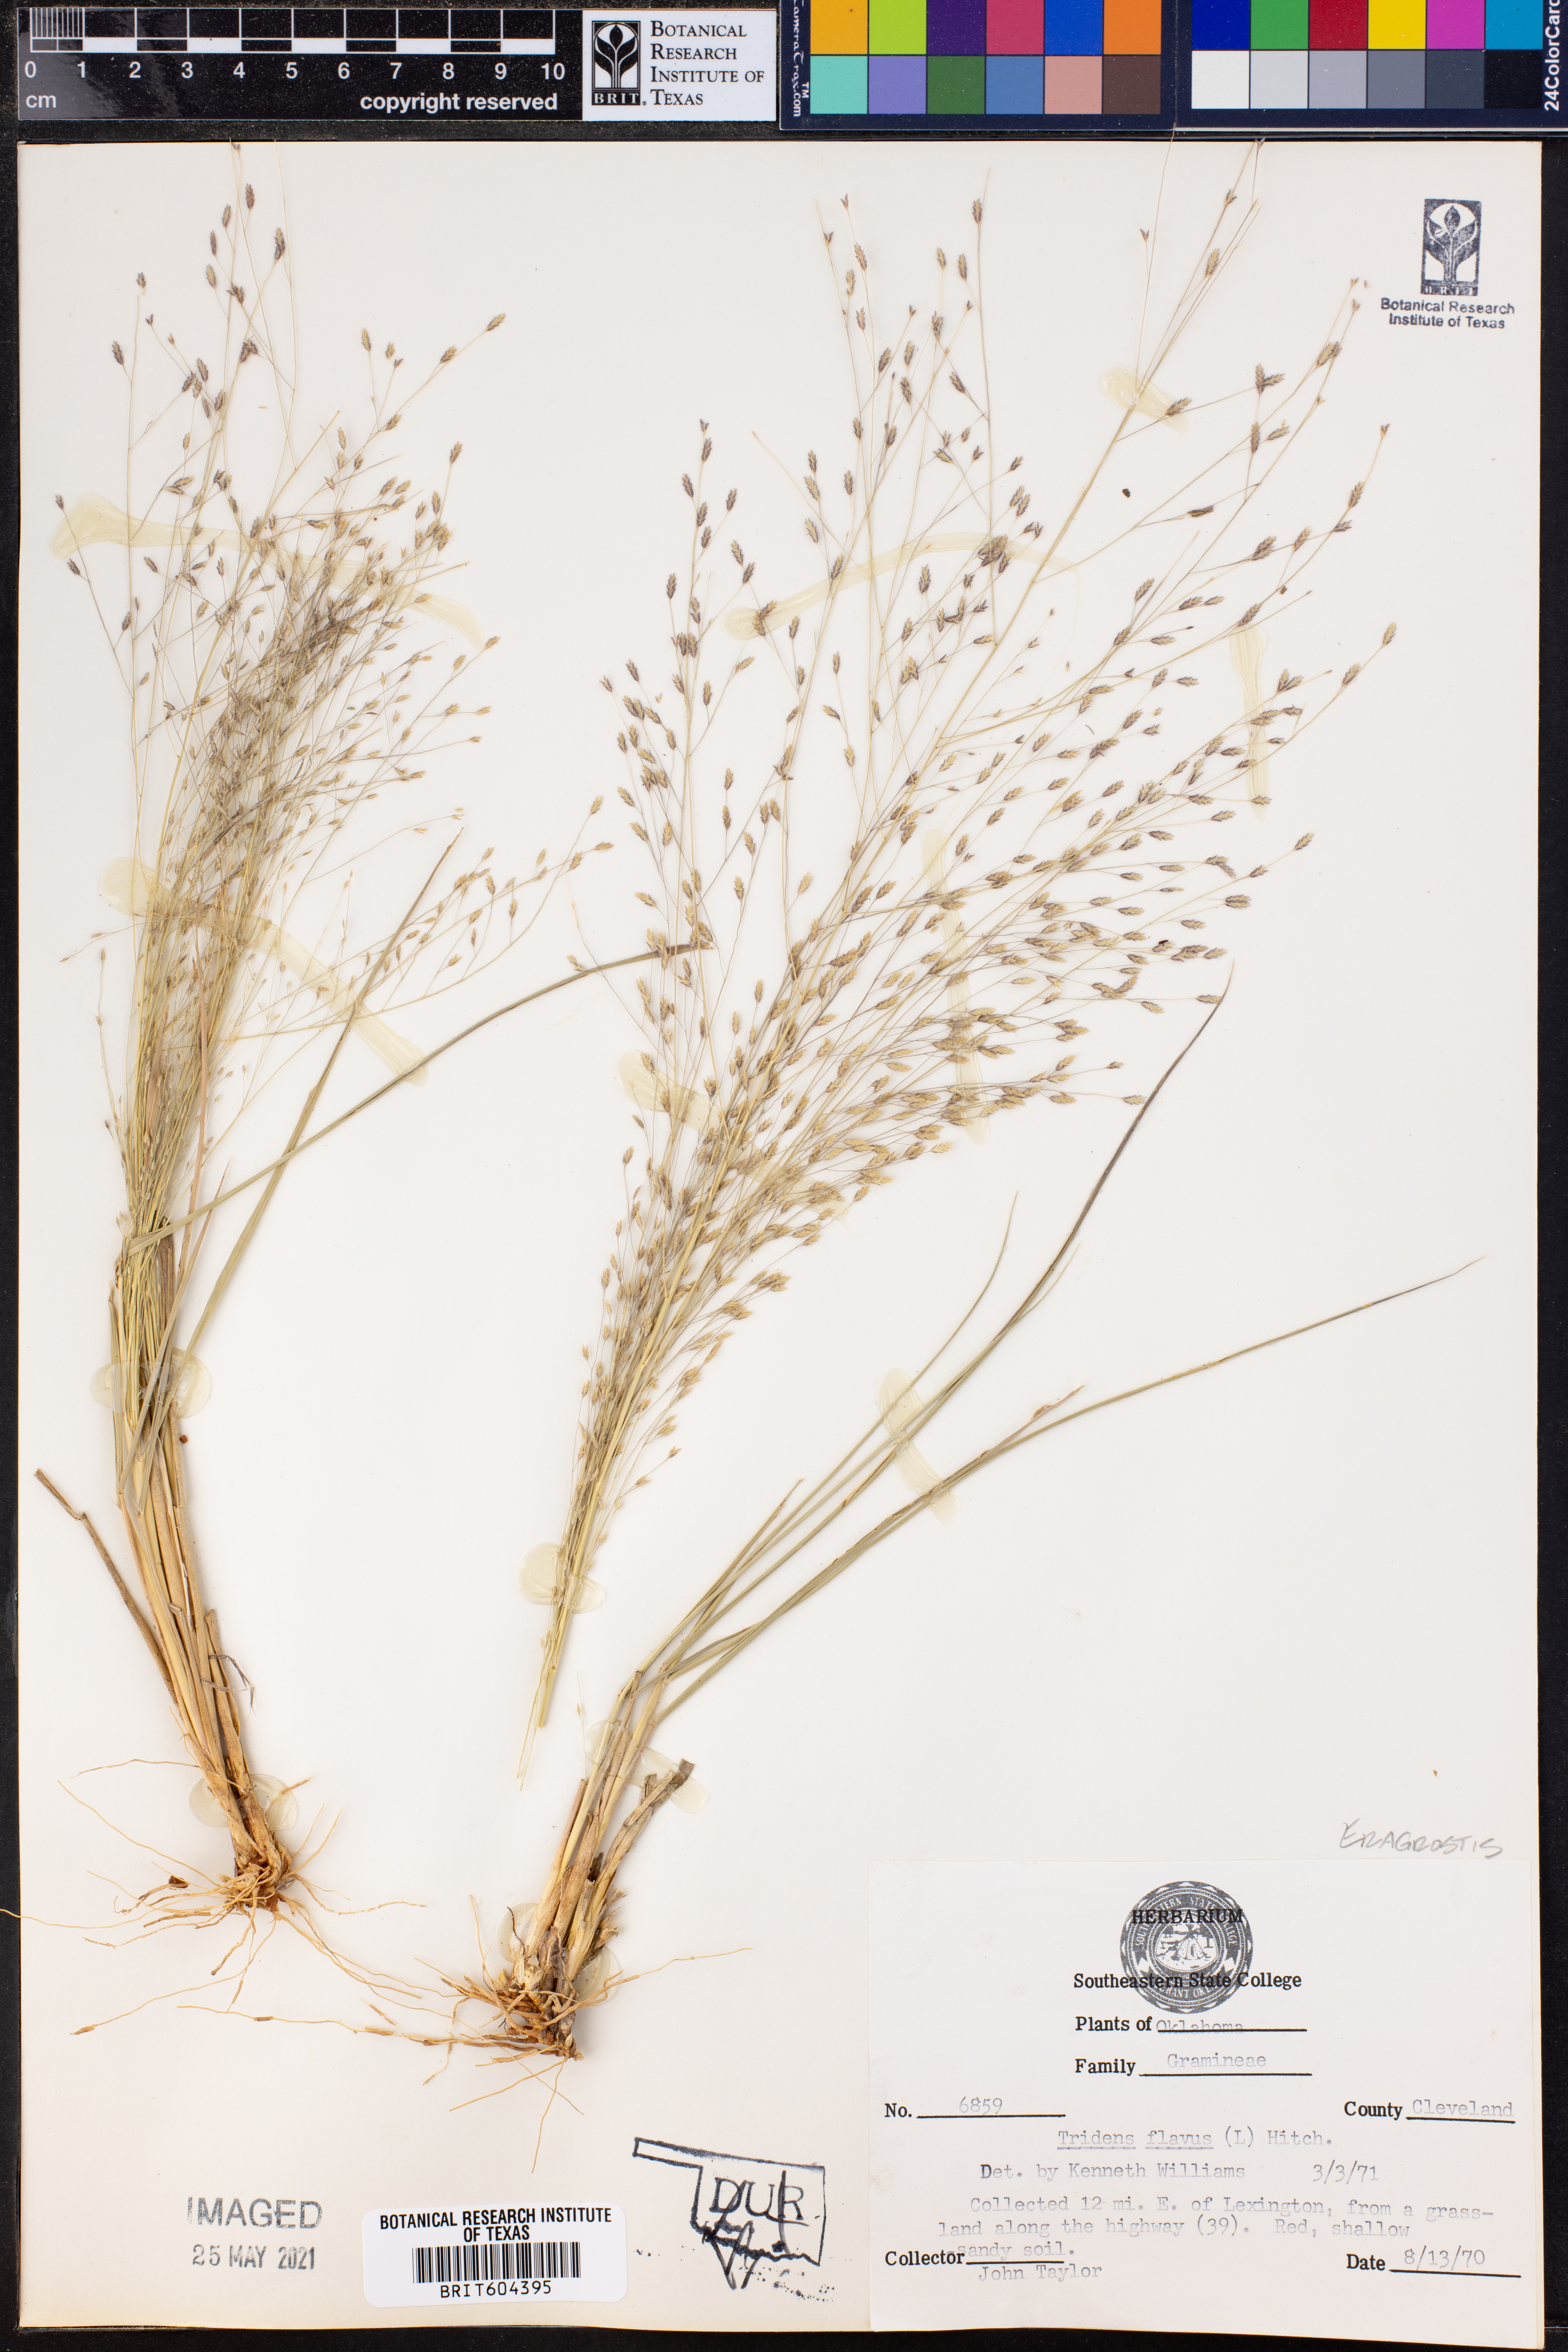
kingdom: Plantae
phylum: Tracheophyta
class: Liliopsida
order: Poales
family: Poaceae
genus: Tridens
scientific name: Tridens flavus
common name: Purpletop
